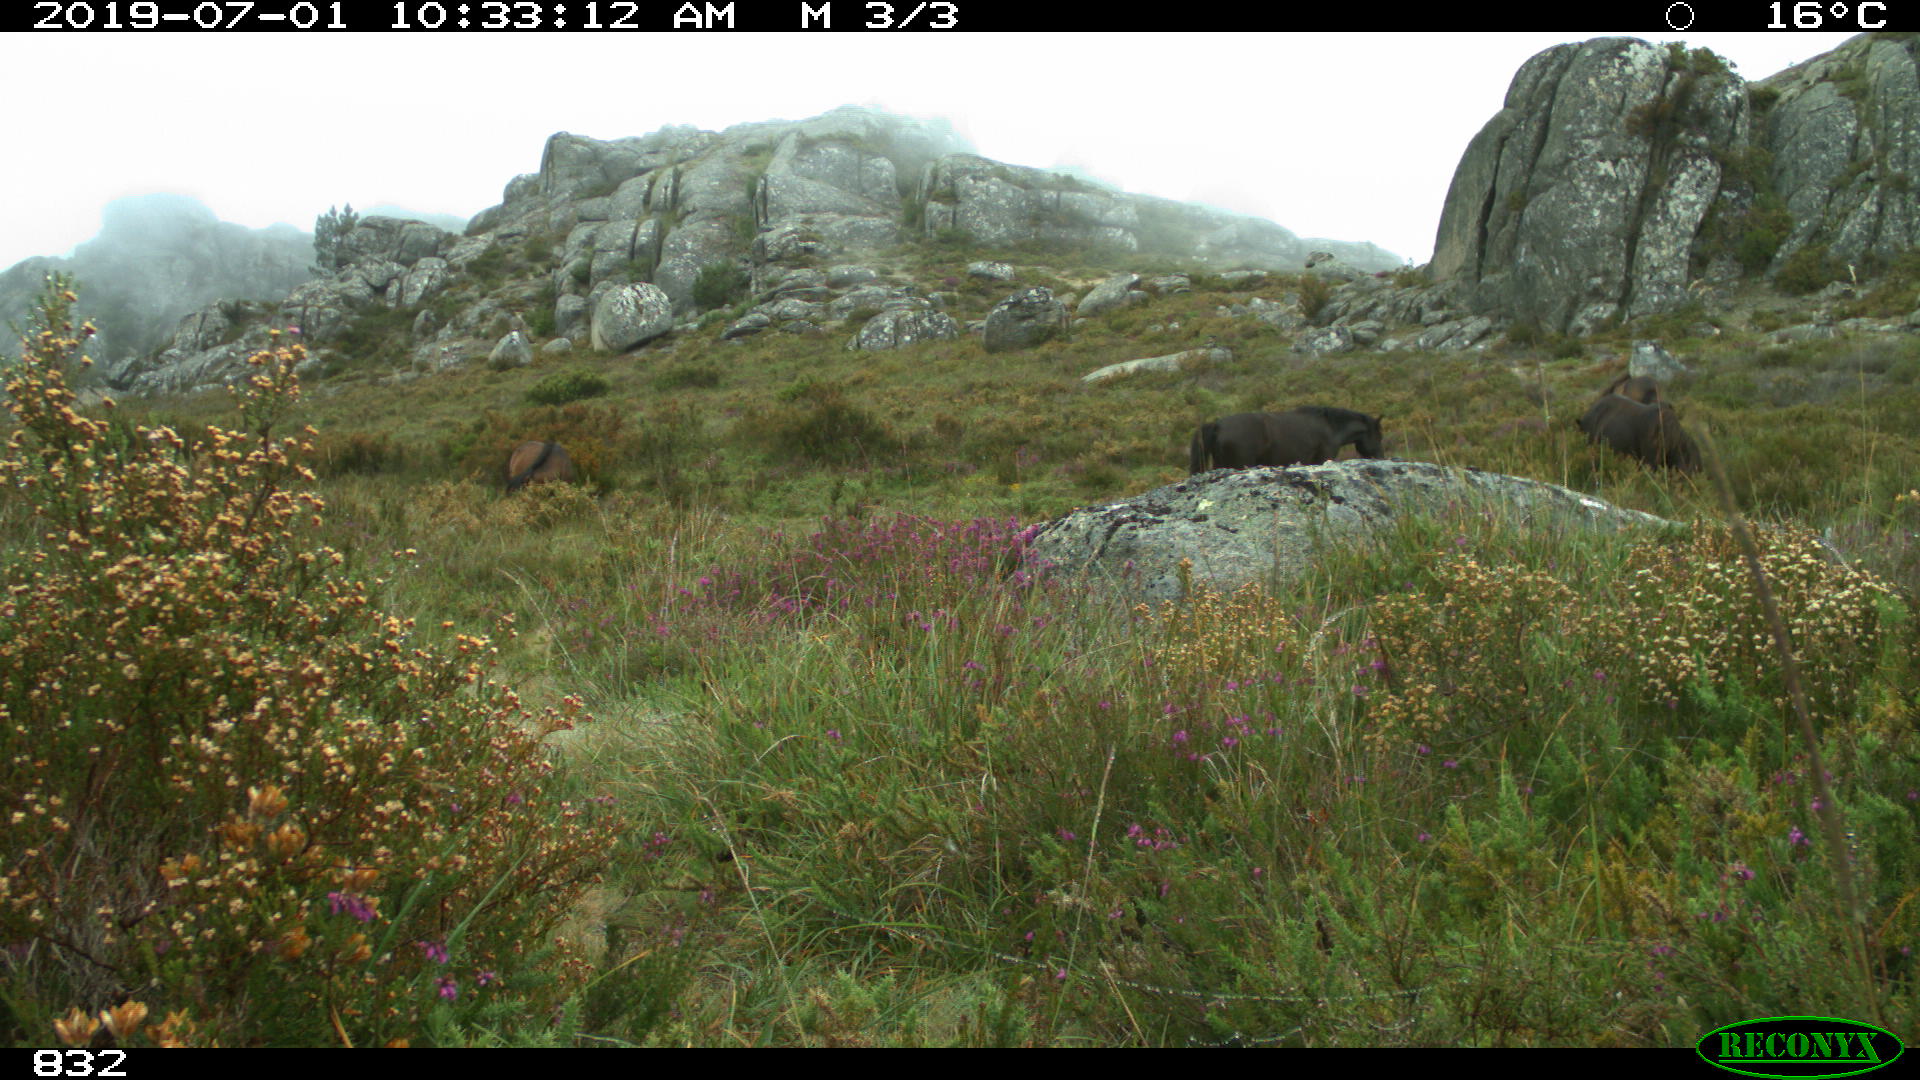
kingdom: Animalia
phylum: Chordata
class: Mammalia
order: Perissodactyla
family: Equidae
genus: Equus
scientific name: Equus caballus
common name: Horse
